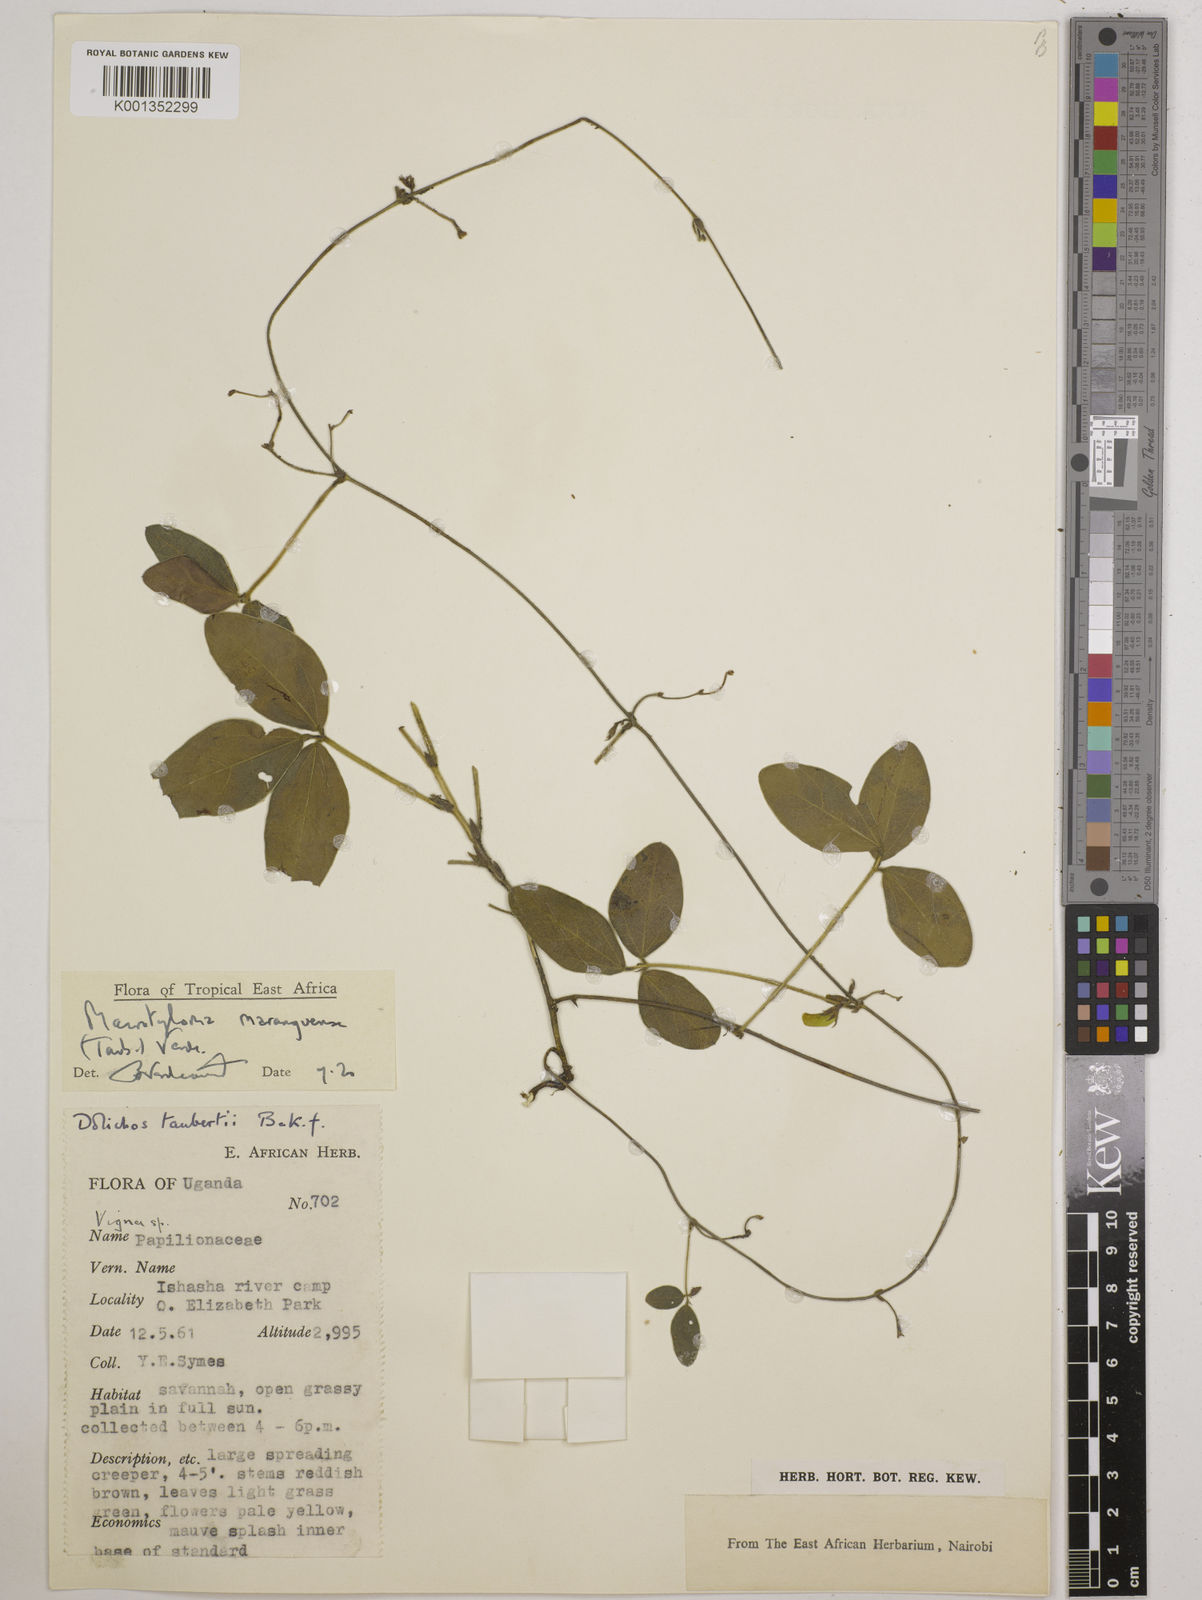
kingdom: Plantae
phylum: Tracheophyta
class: Magnoliopsida
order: Fabales
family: Fabaceae
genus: Macrotyloma
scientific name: Macrotyloma maranguense
